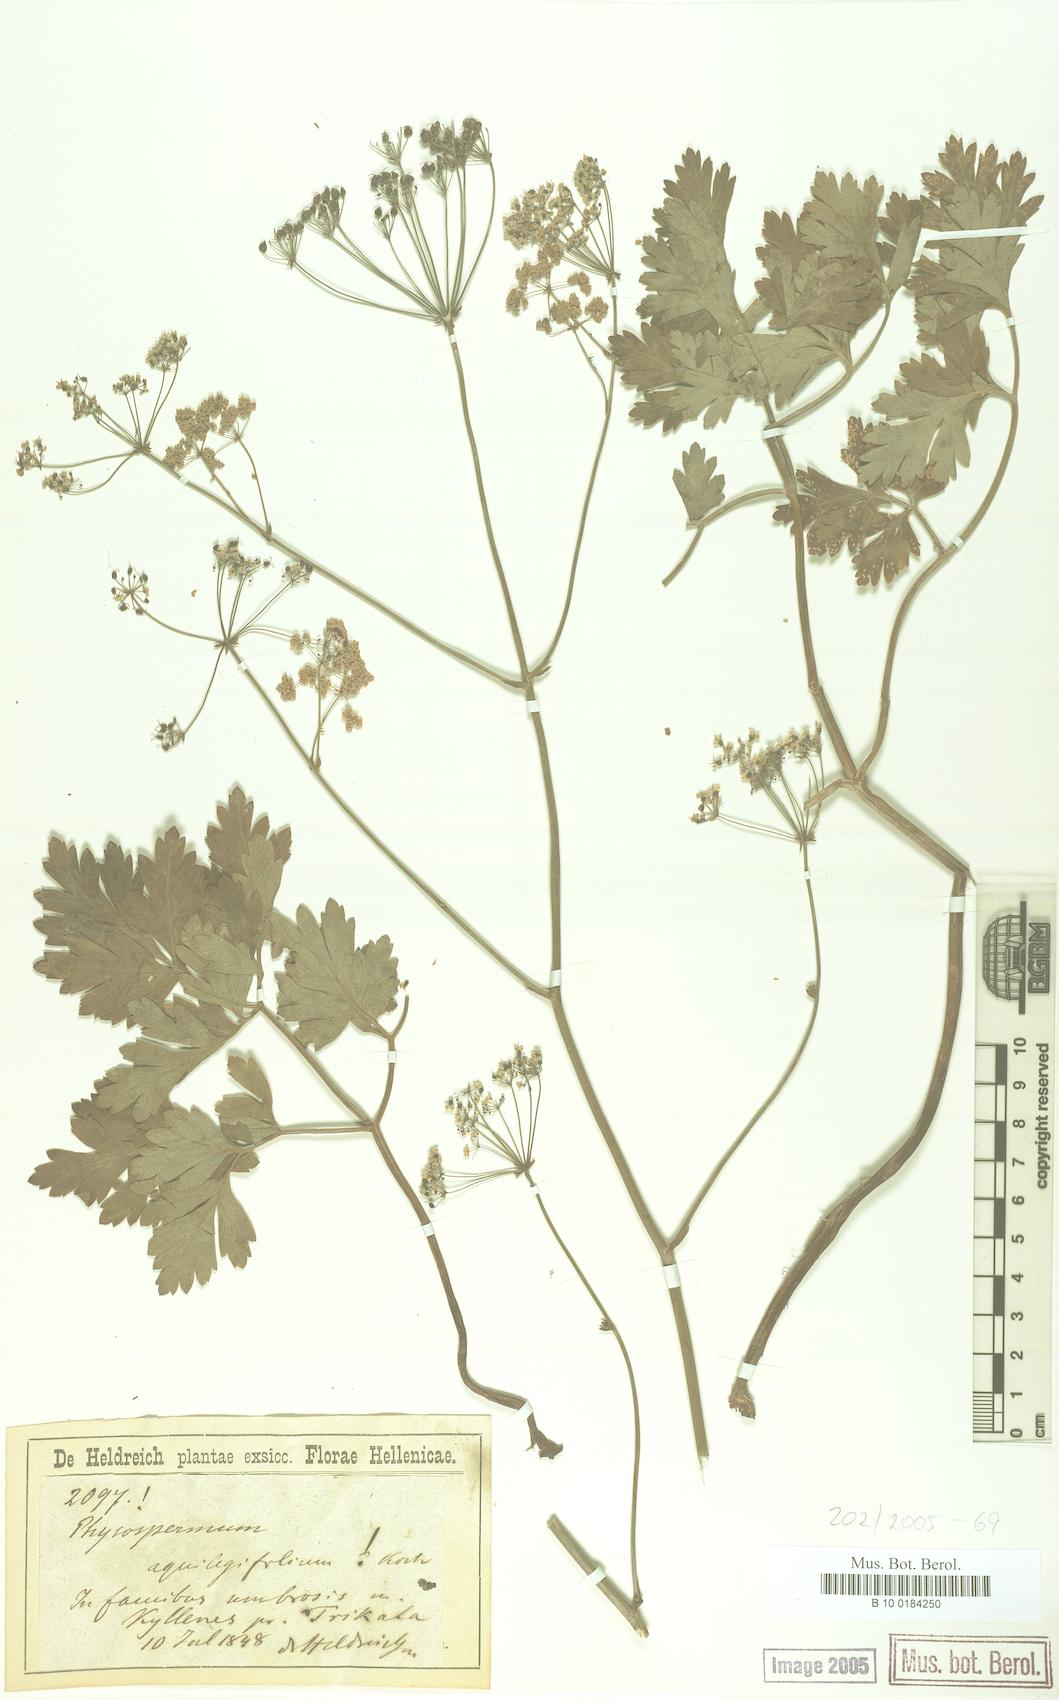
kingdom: Plantae
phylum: Tracheophyta
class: Magnoliopsida
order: Apiales
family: Apiaceae
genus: Physospermum
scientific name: Physospermum cornubiense
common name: Bladderseed
